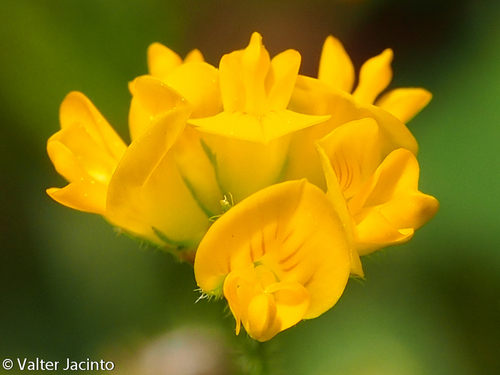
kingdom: Plantae
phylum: Tracheophyta
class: Magnoliopsida
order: Fabales
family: Fabaceae
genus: Medicago
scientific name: Medicago
